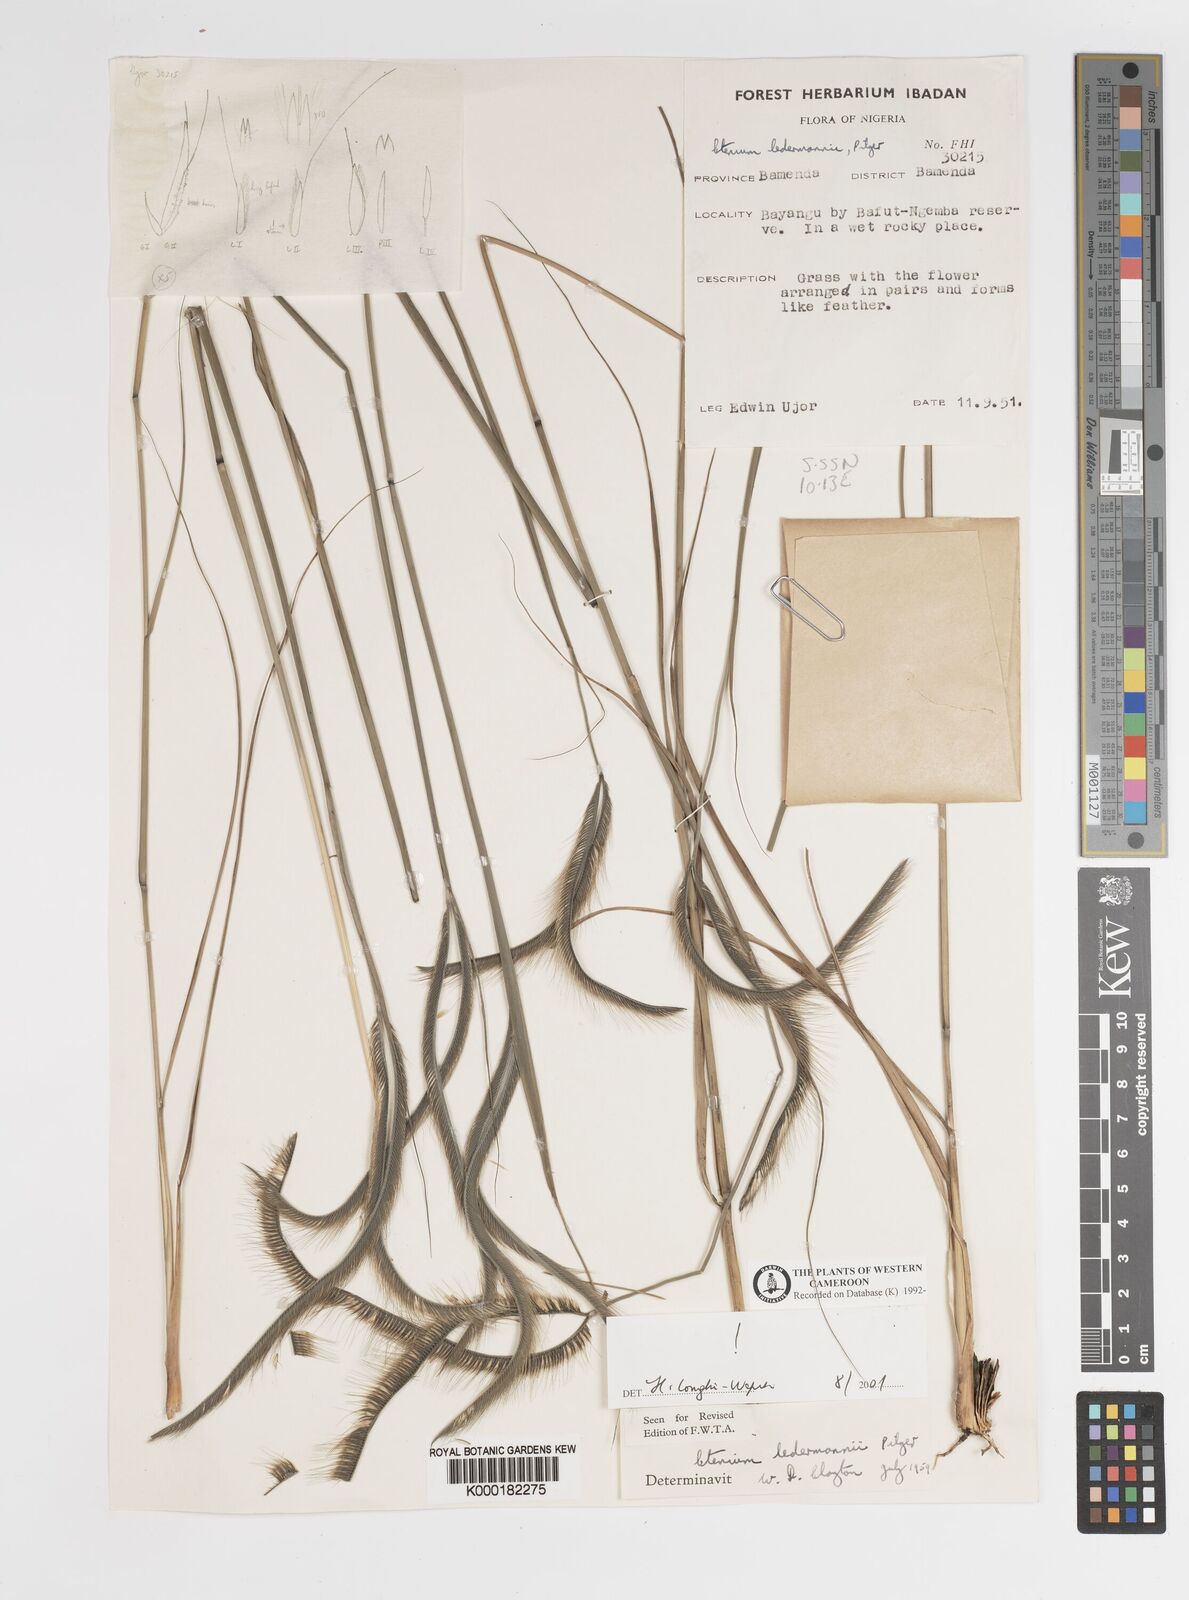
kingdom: Plantae
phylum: Tracheophyta
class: Liliopsida
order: Poales
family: Poaceae
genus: Ctenium
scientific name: Ctenium ledermannii
